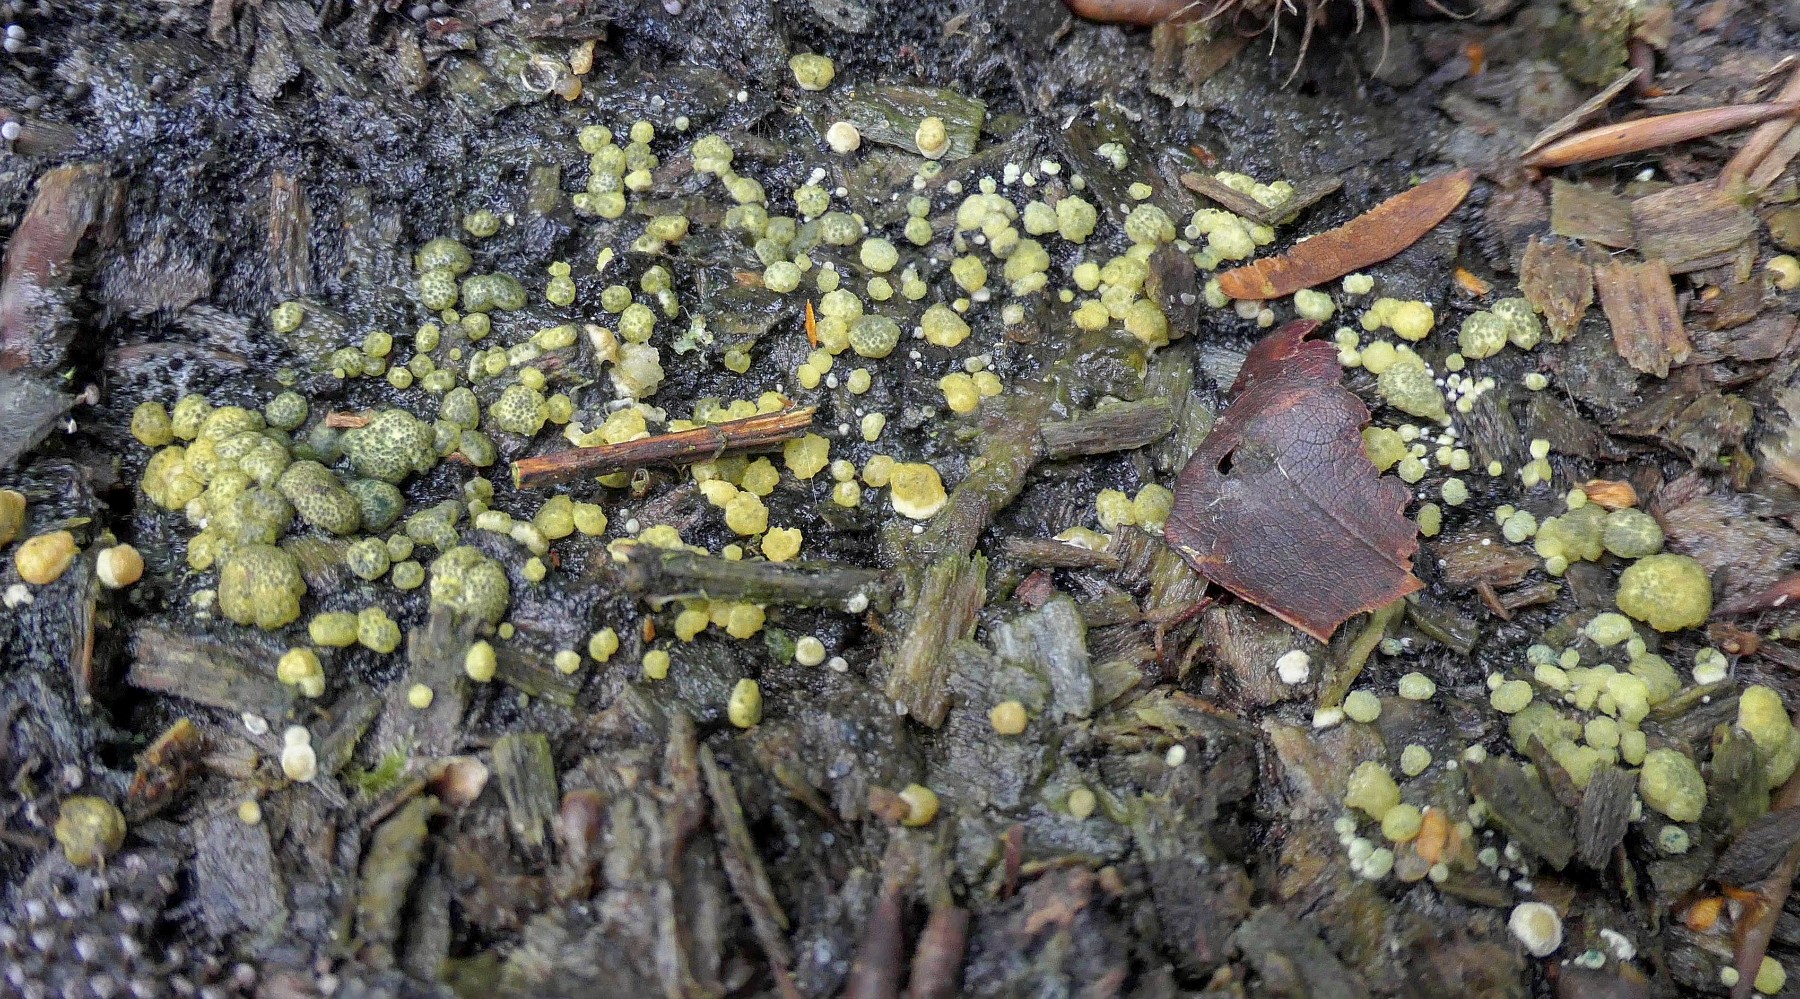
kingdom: Fungi
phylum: Ascomycota
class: Sordariomycetes
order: Hypocreales
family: Hypocreaceae
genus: Trichoderma
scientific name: Trichoderma strictipile
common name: grønprikket kødkerne
